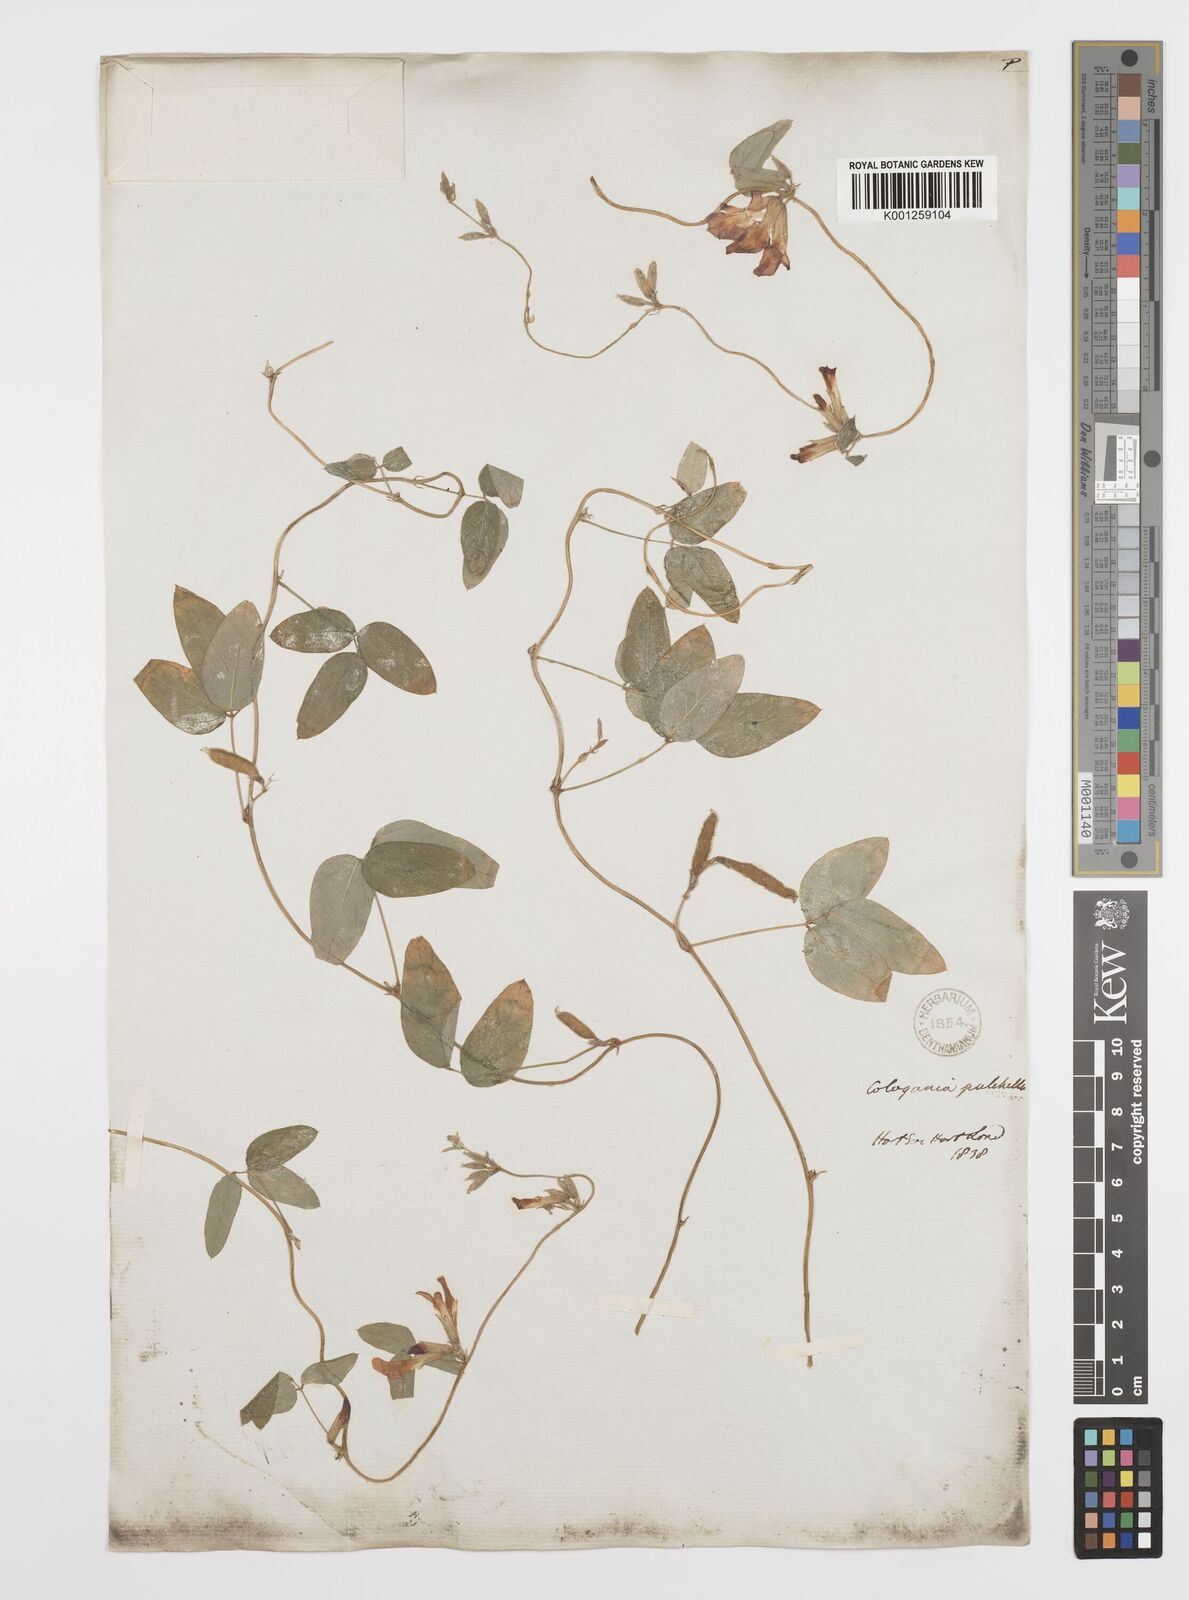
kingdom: Plantae
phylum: Tracheophyta
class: Magnoliopsida
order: Fabales
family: Fabaceae
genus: Cologania
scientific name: Cologania broussonetii
